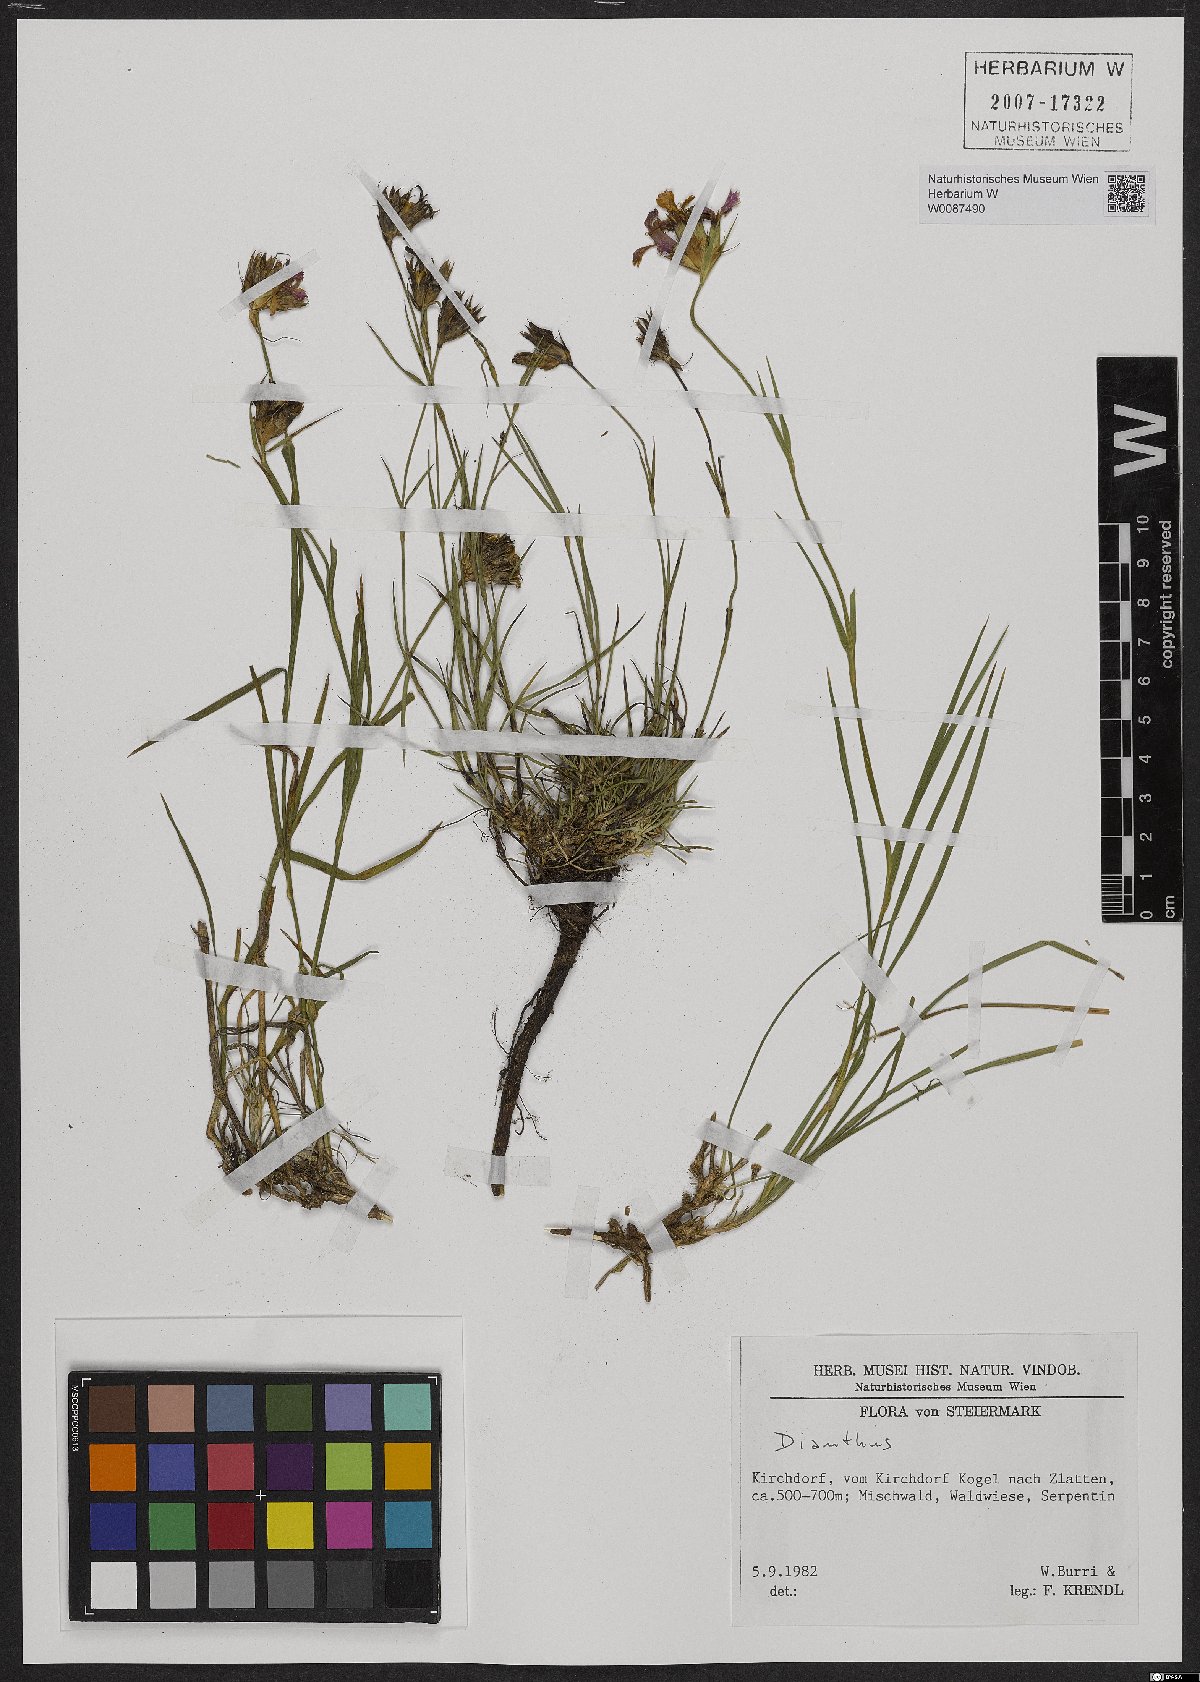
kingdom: Plantae
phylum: Tracheophyta
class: Magnoliopsida
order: Caryophyllales
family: Caryophyllaceae
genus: Dianthus
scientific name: Dianthus carthusianorum
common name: Carthusian pink
